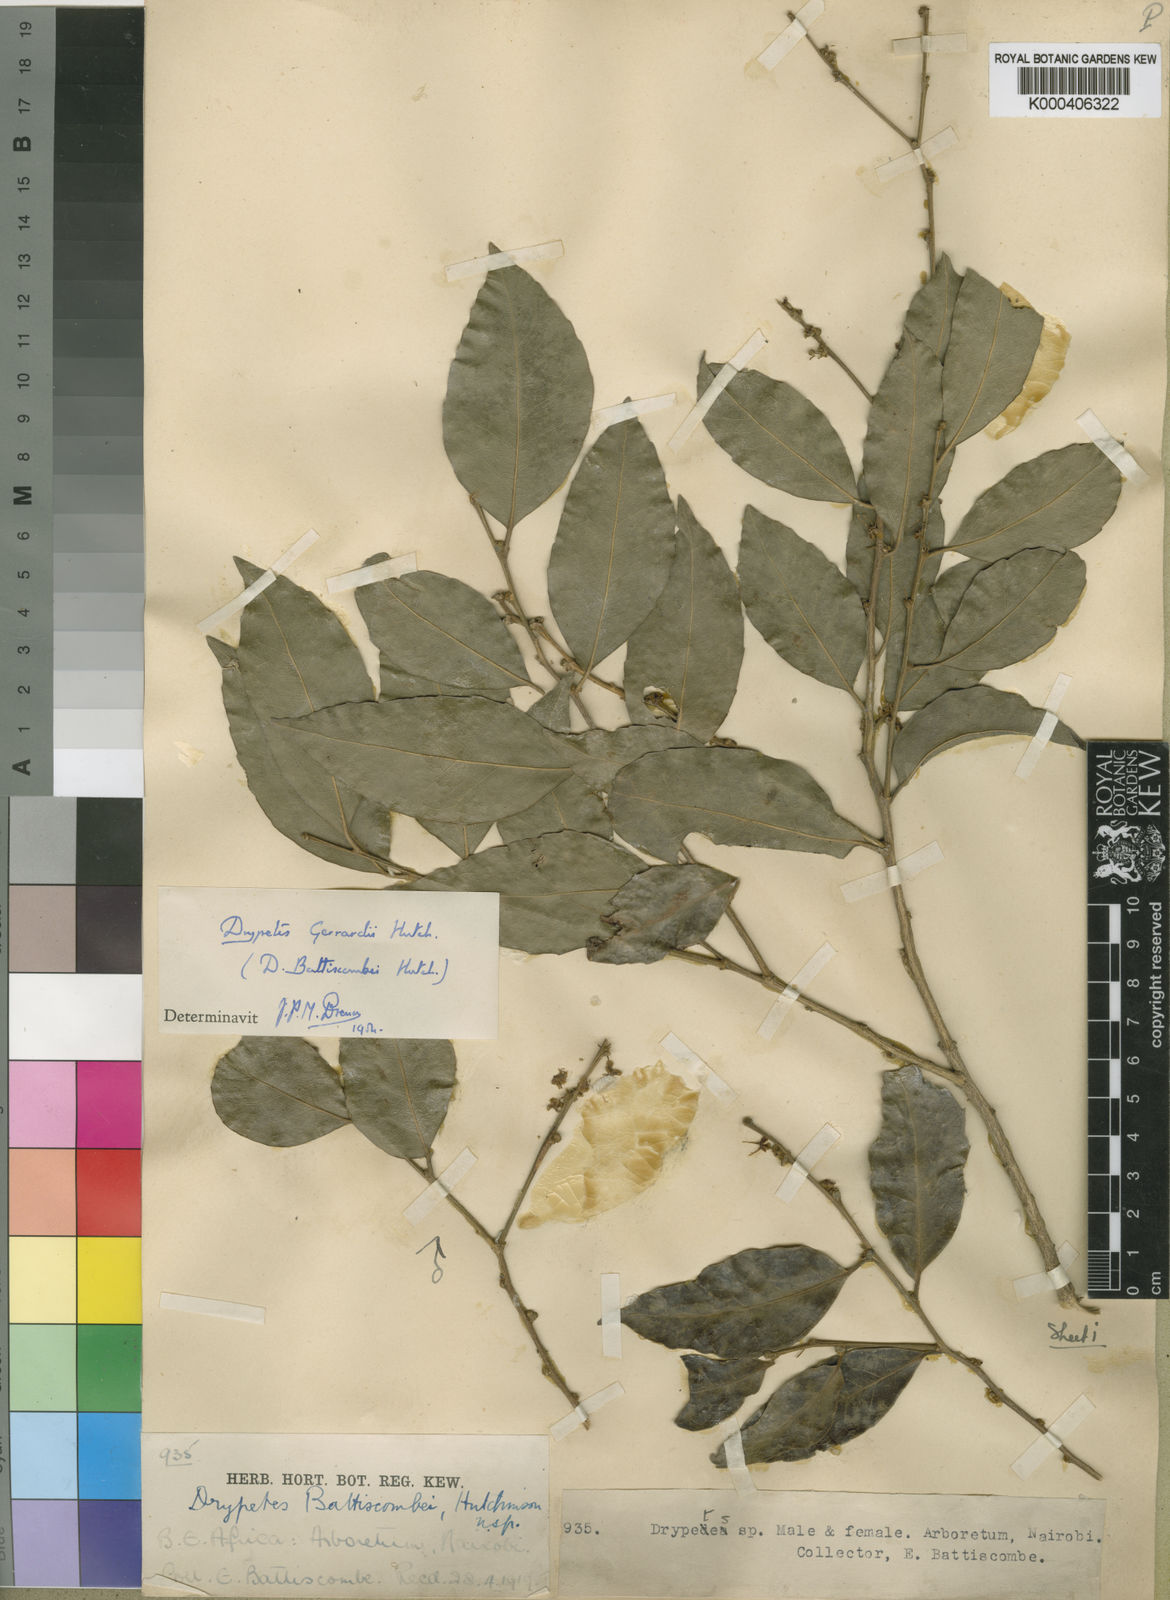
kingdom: Plantae
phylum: Tracheophyta
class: Magnoliopsida
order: Malpighiales
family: Putranjivaceae
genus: Drypetes
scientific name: Drypetes gerrardii
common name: Forest ironplum
